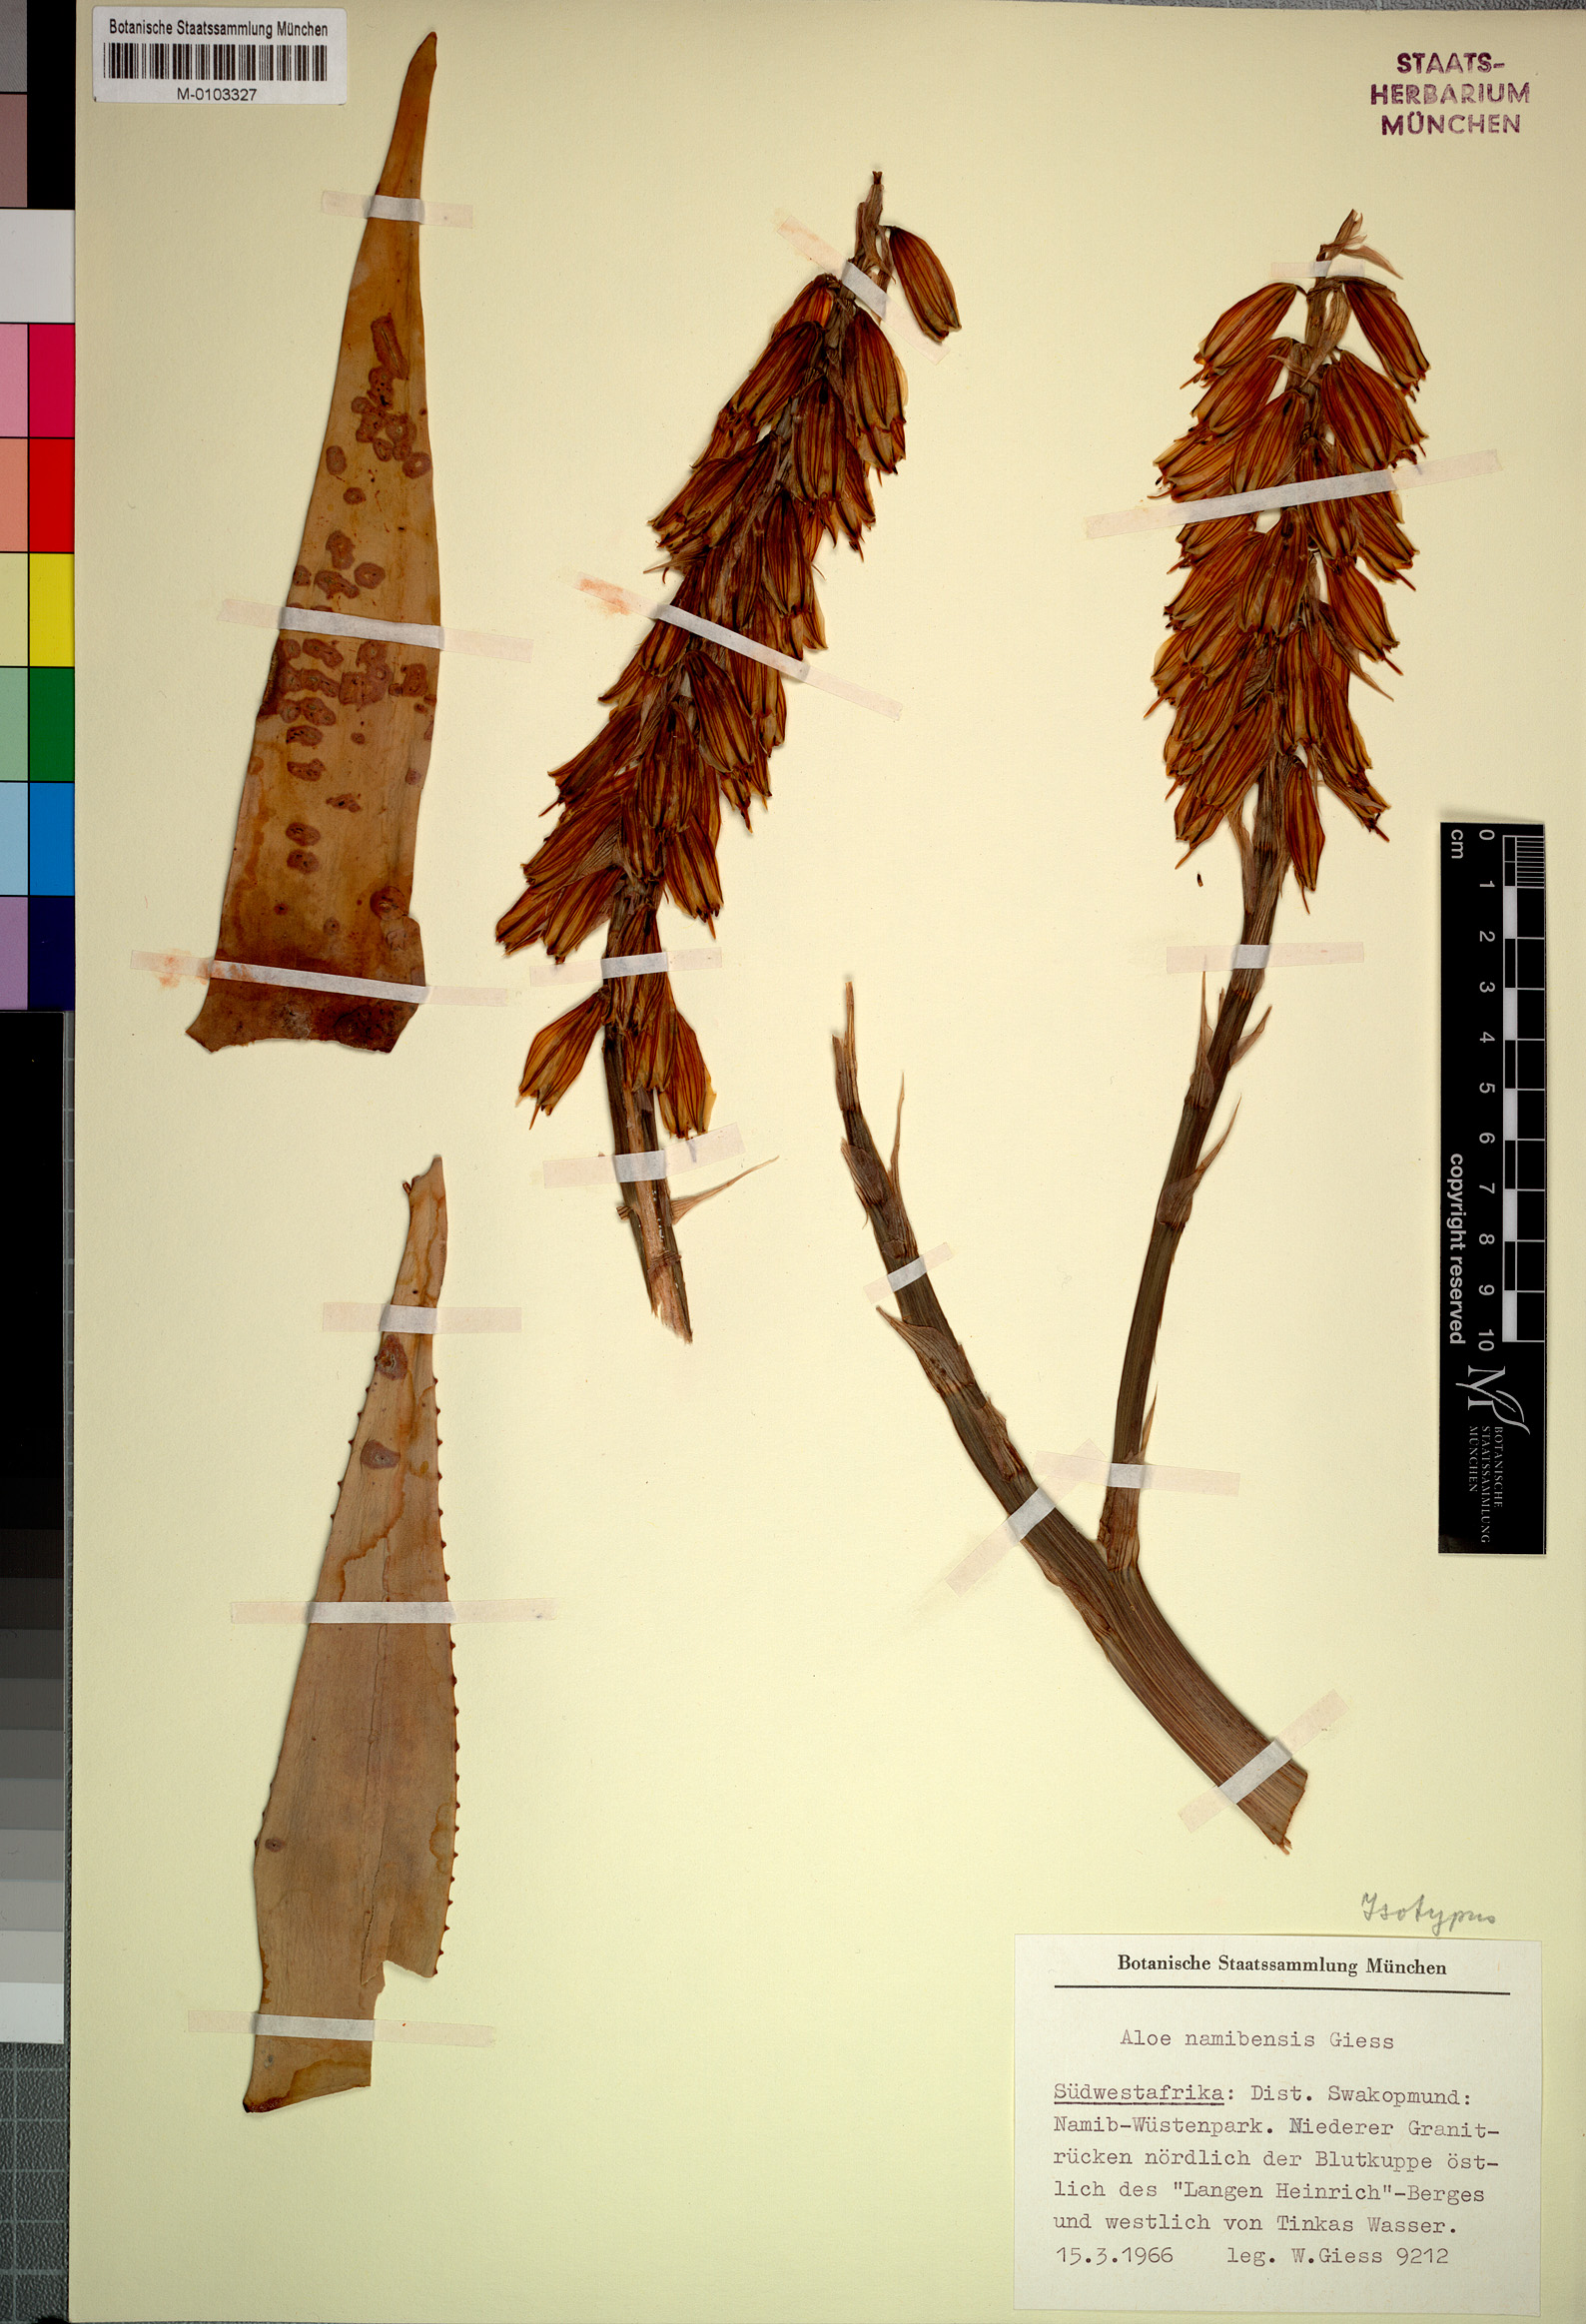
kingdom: Plantae
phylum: Tracheophyta
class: Liliopsida
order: Asparagales
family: Asphodelaceae
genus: Aloe
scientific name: Aloe namibensis
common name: Namib aloe
